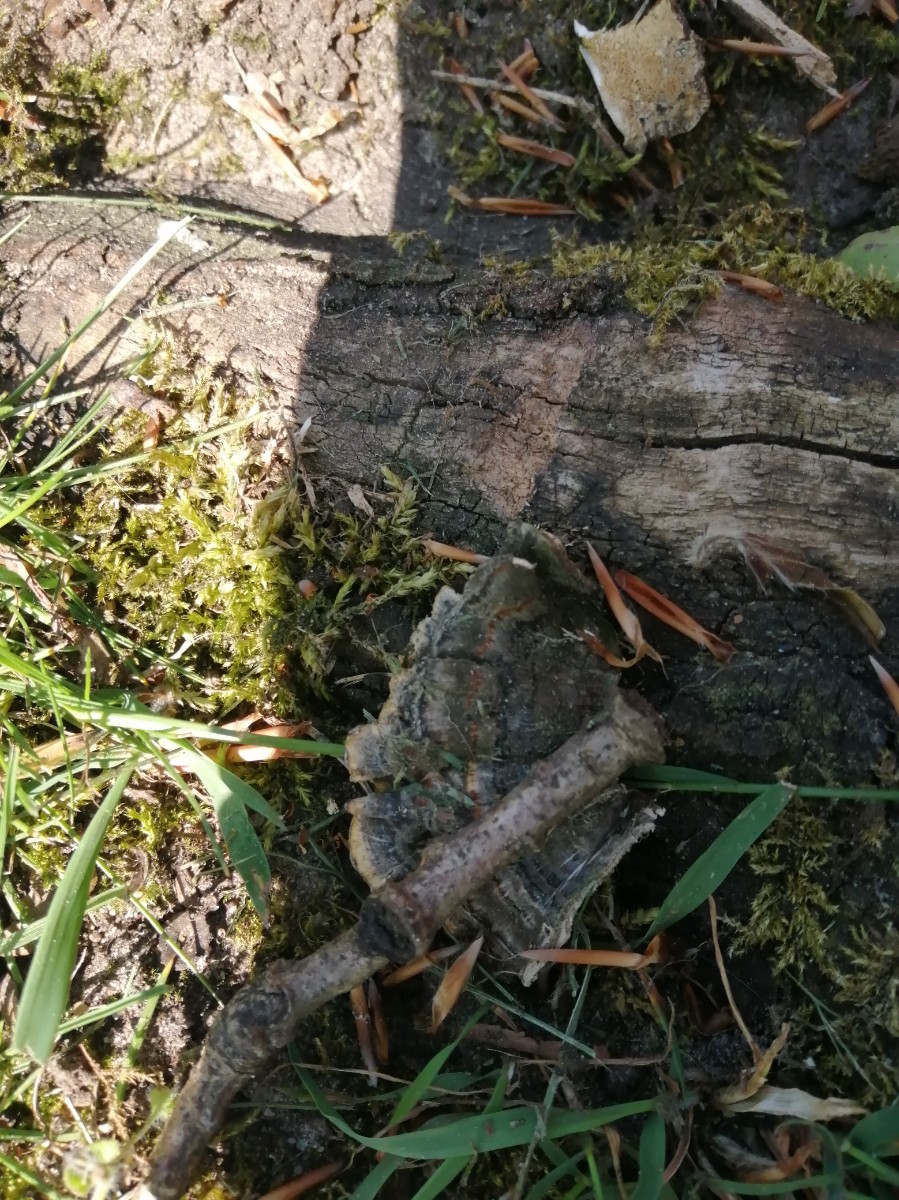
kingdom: Fungi
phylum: Basidiomycota
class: Agaricomycetes
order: Polyporales
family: Polyporaceae
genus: Trametes
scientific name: Trametes versicolor
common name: broget læderporesvamp
